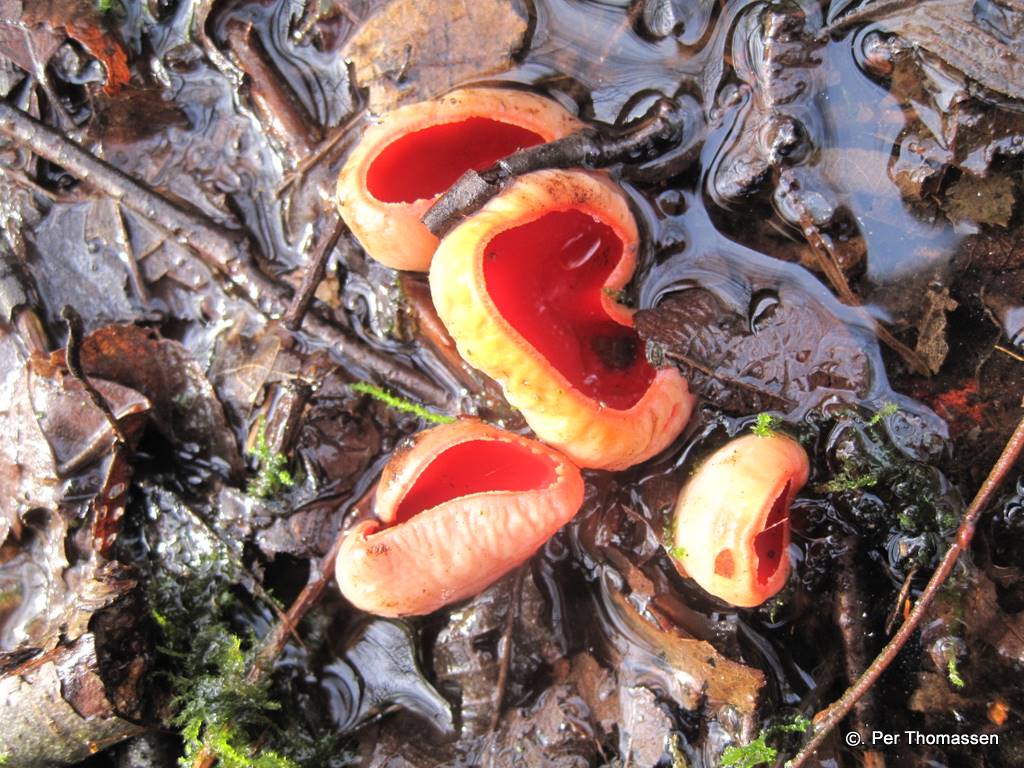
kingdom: Fungi
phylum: Ascomycota
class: Pezizomycetes
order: Pezizales
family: Sarcoscyphaceae
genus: Sarcoscypha
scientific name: Sarcoscypha austriaca
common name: krølhåret pragtbæger
